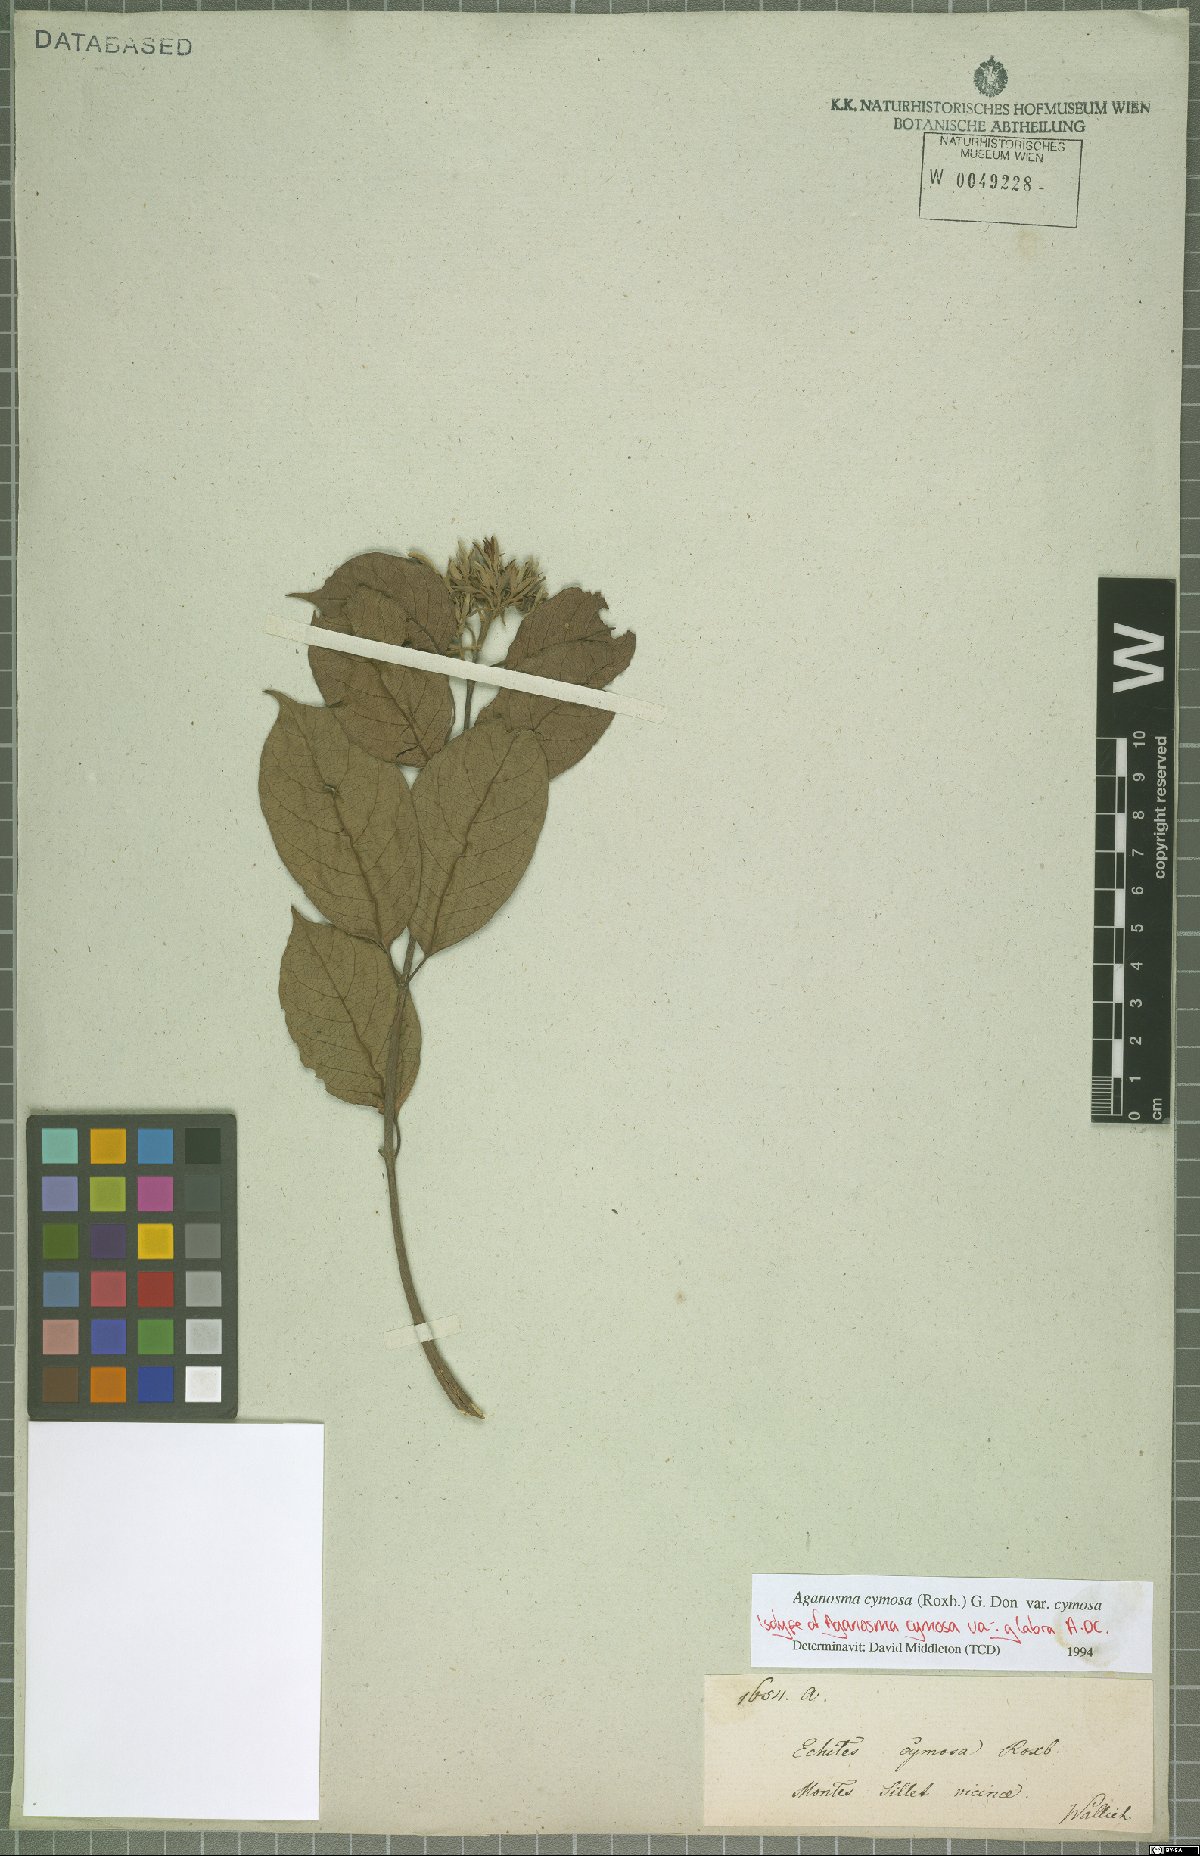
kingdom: Plantae
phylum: Tracheophyta
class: Magnoliopsida
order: Gentianales
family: Apocynaceae
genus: Aganosma
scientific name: Aganosma cymosa
